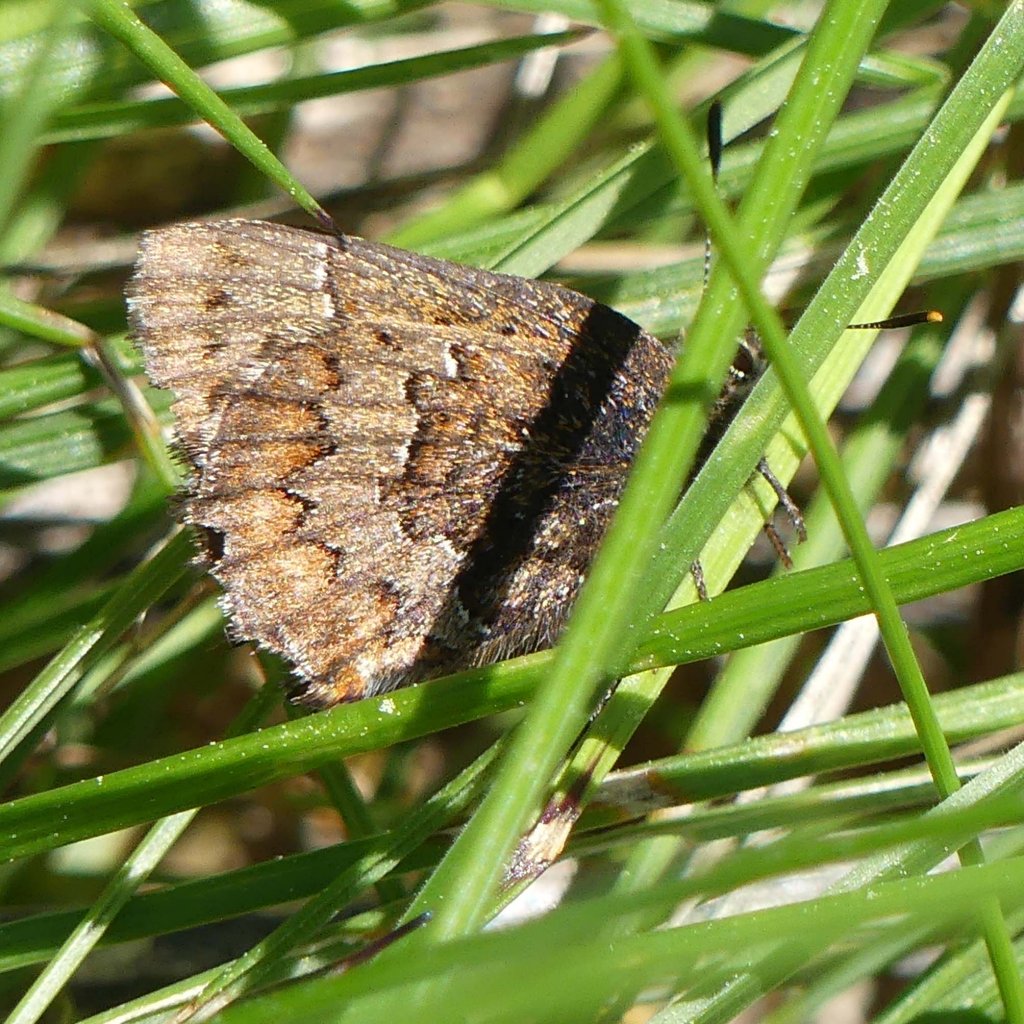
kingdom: Animalia
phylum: Arthropoda
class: Insecta
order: Lepidoptera
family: Lycaenidae
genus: Incisalia
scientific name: Incisalia niphon
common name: Eastern Pine Elfin
